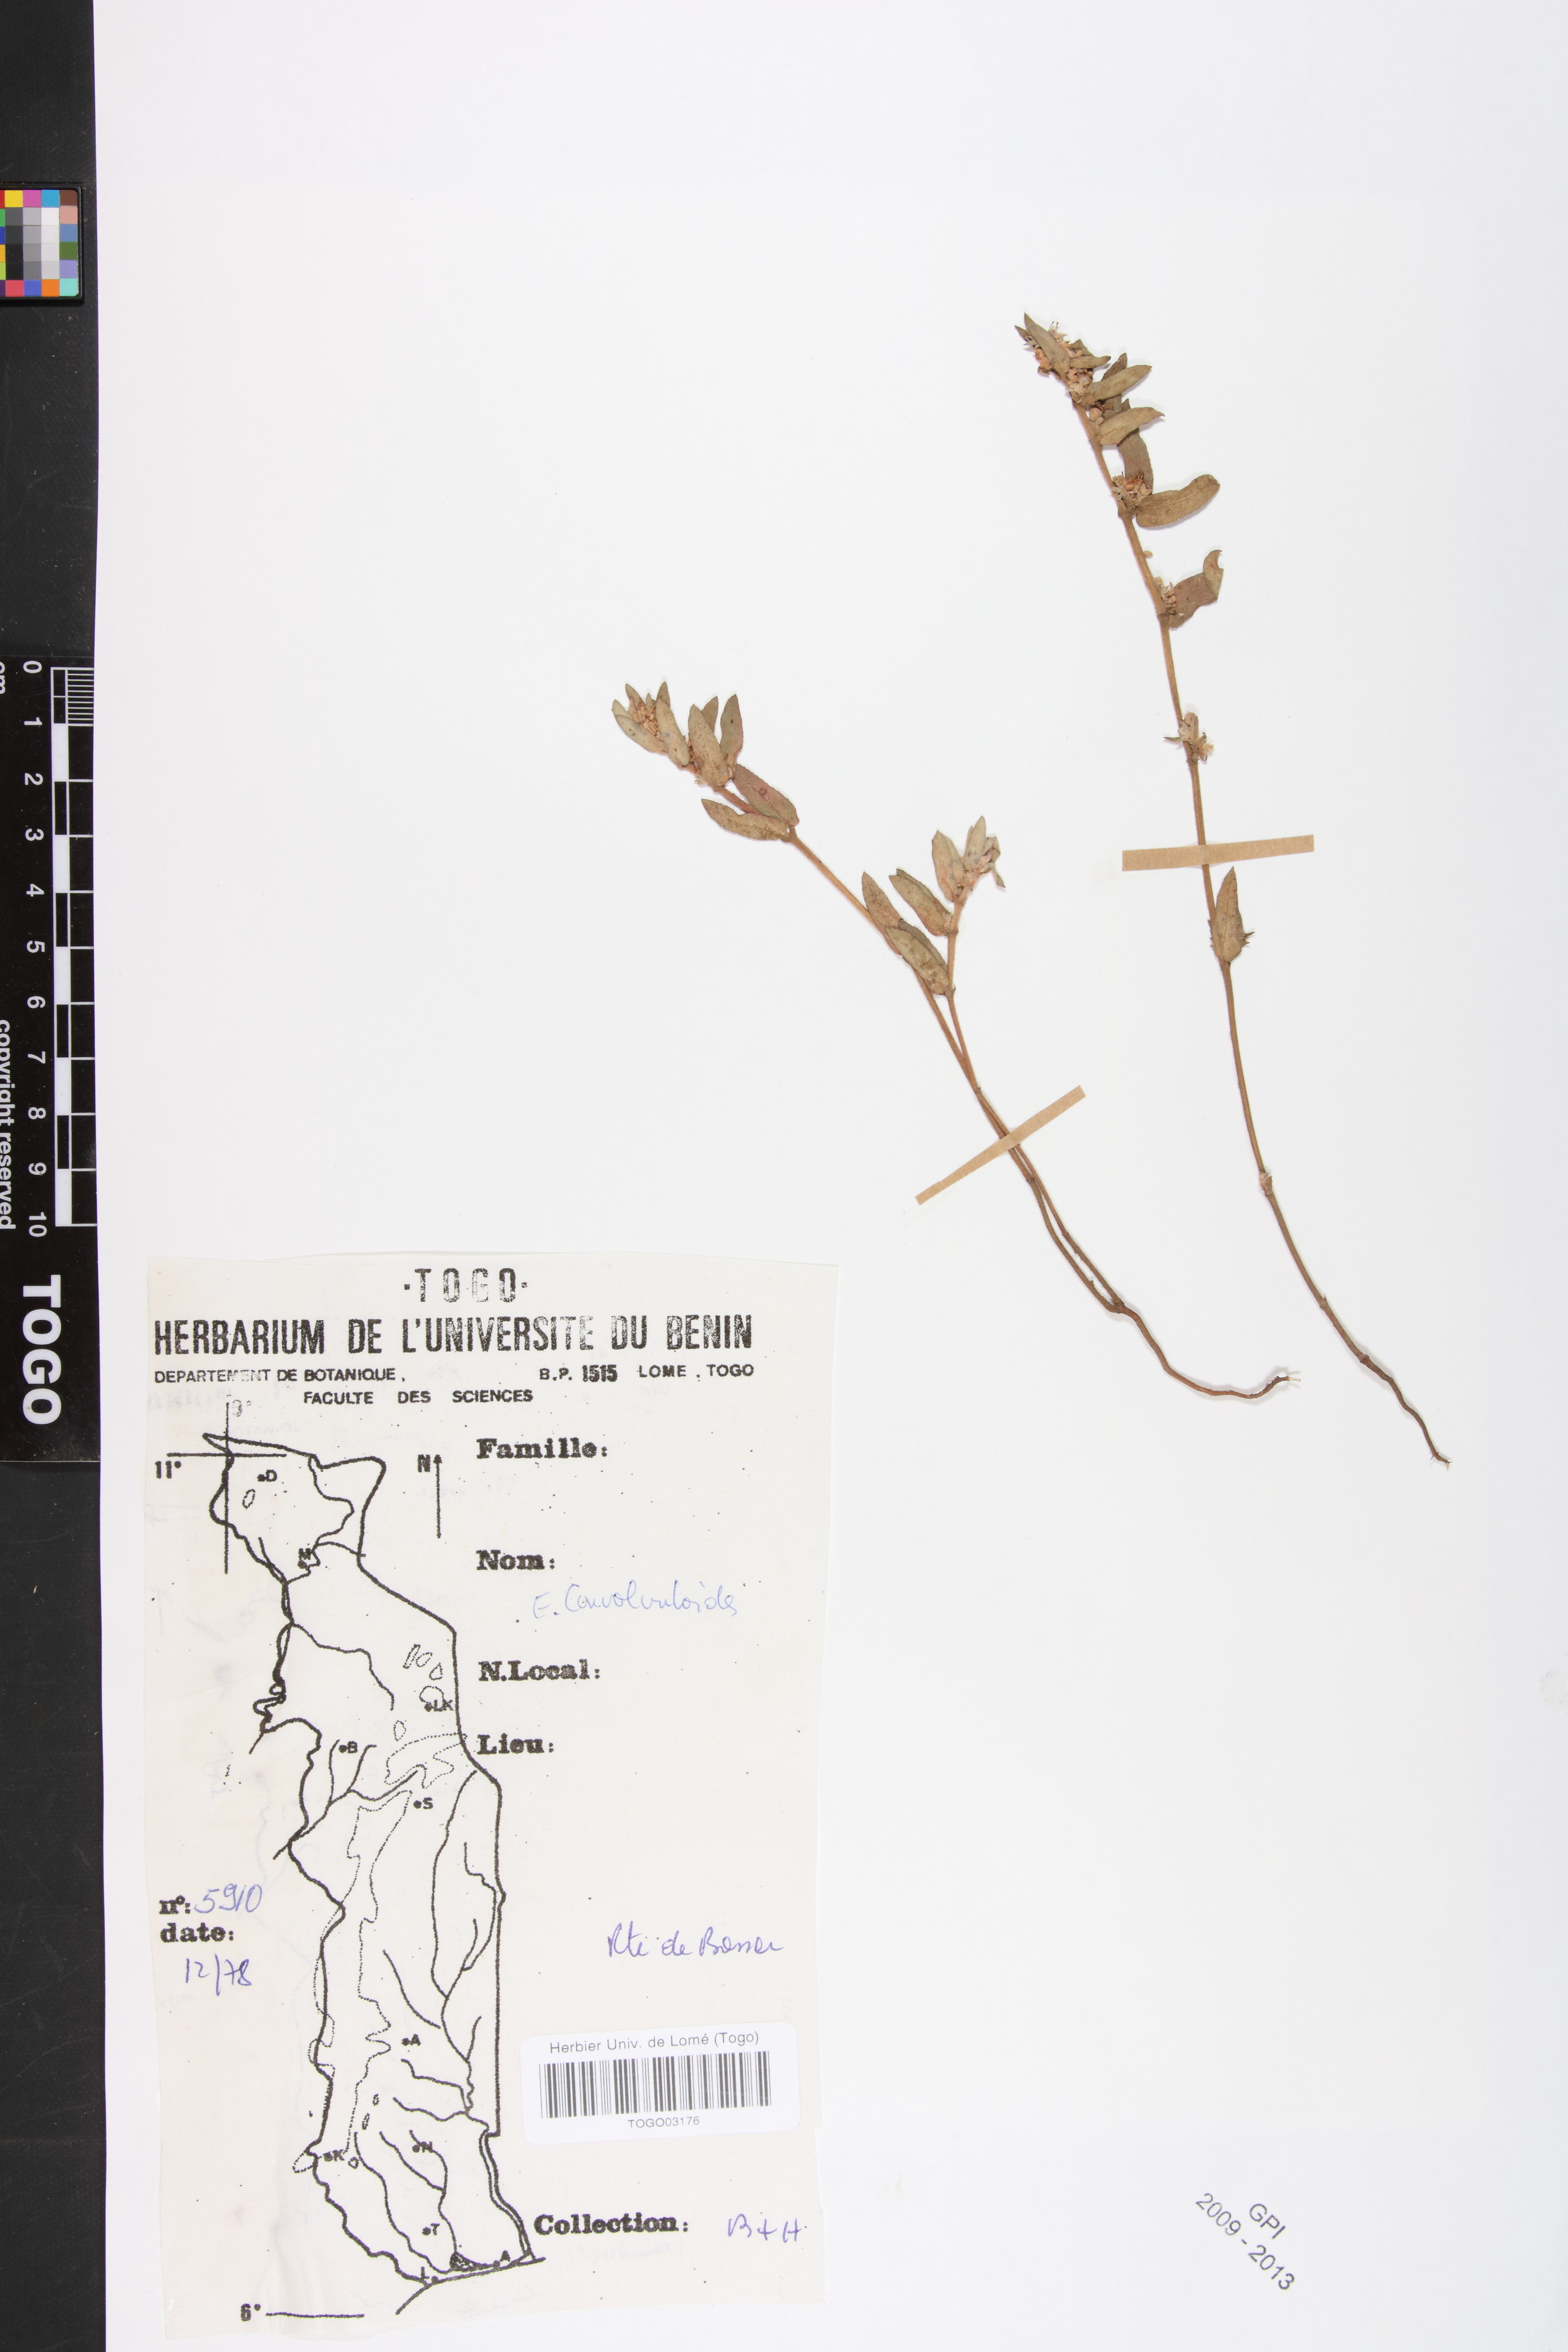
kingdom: Plantae
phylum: Tracheophyta
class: Magnoliopsida
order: Malpighiales
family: Euphorbiaceae
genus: Euphorbia
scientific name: Euphorbia convolvuloides
